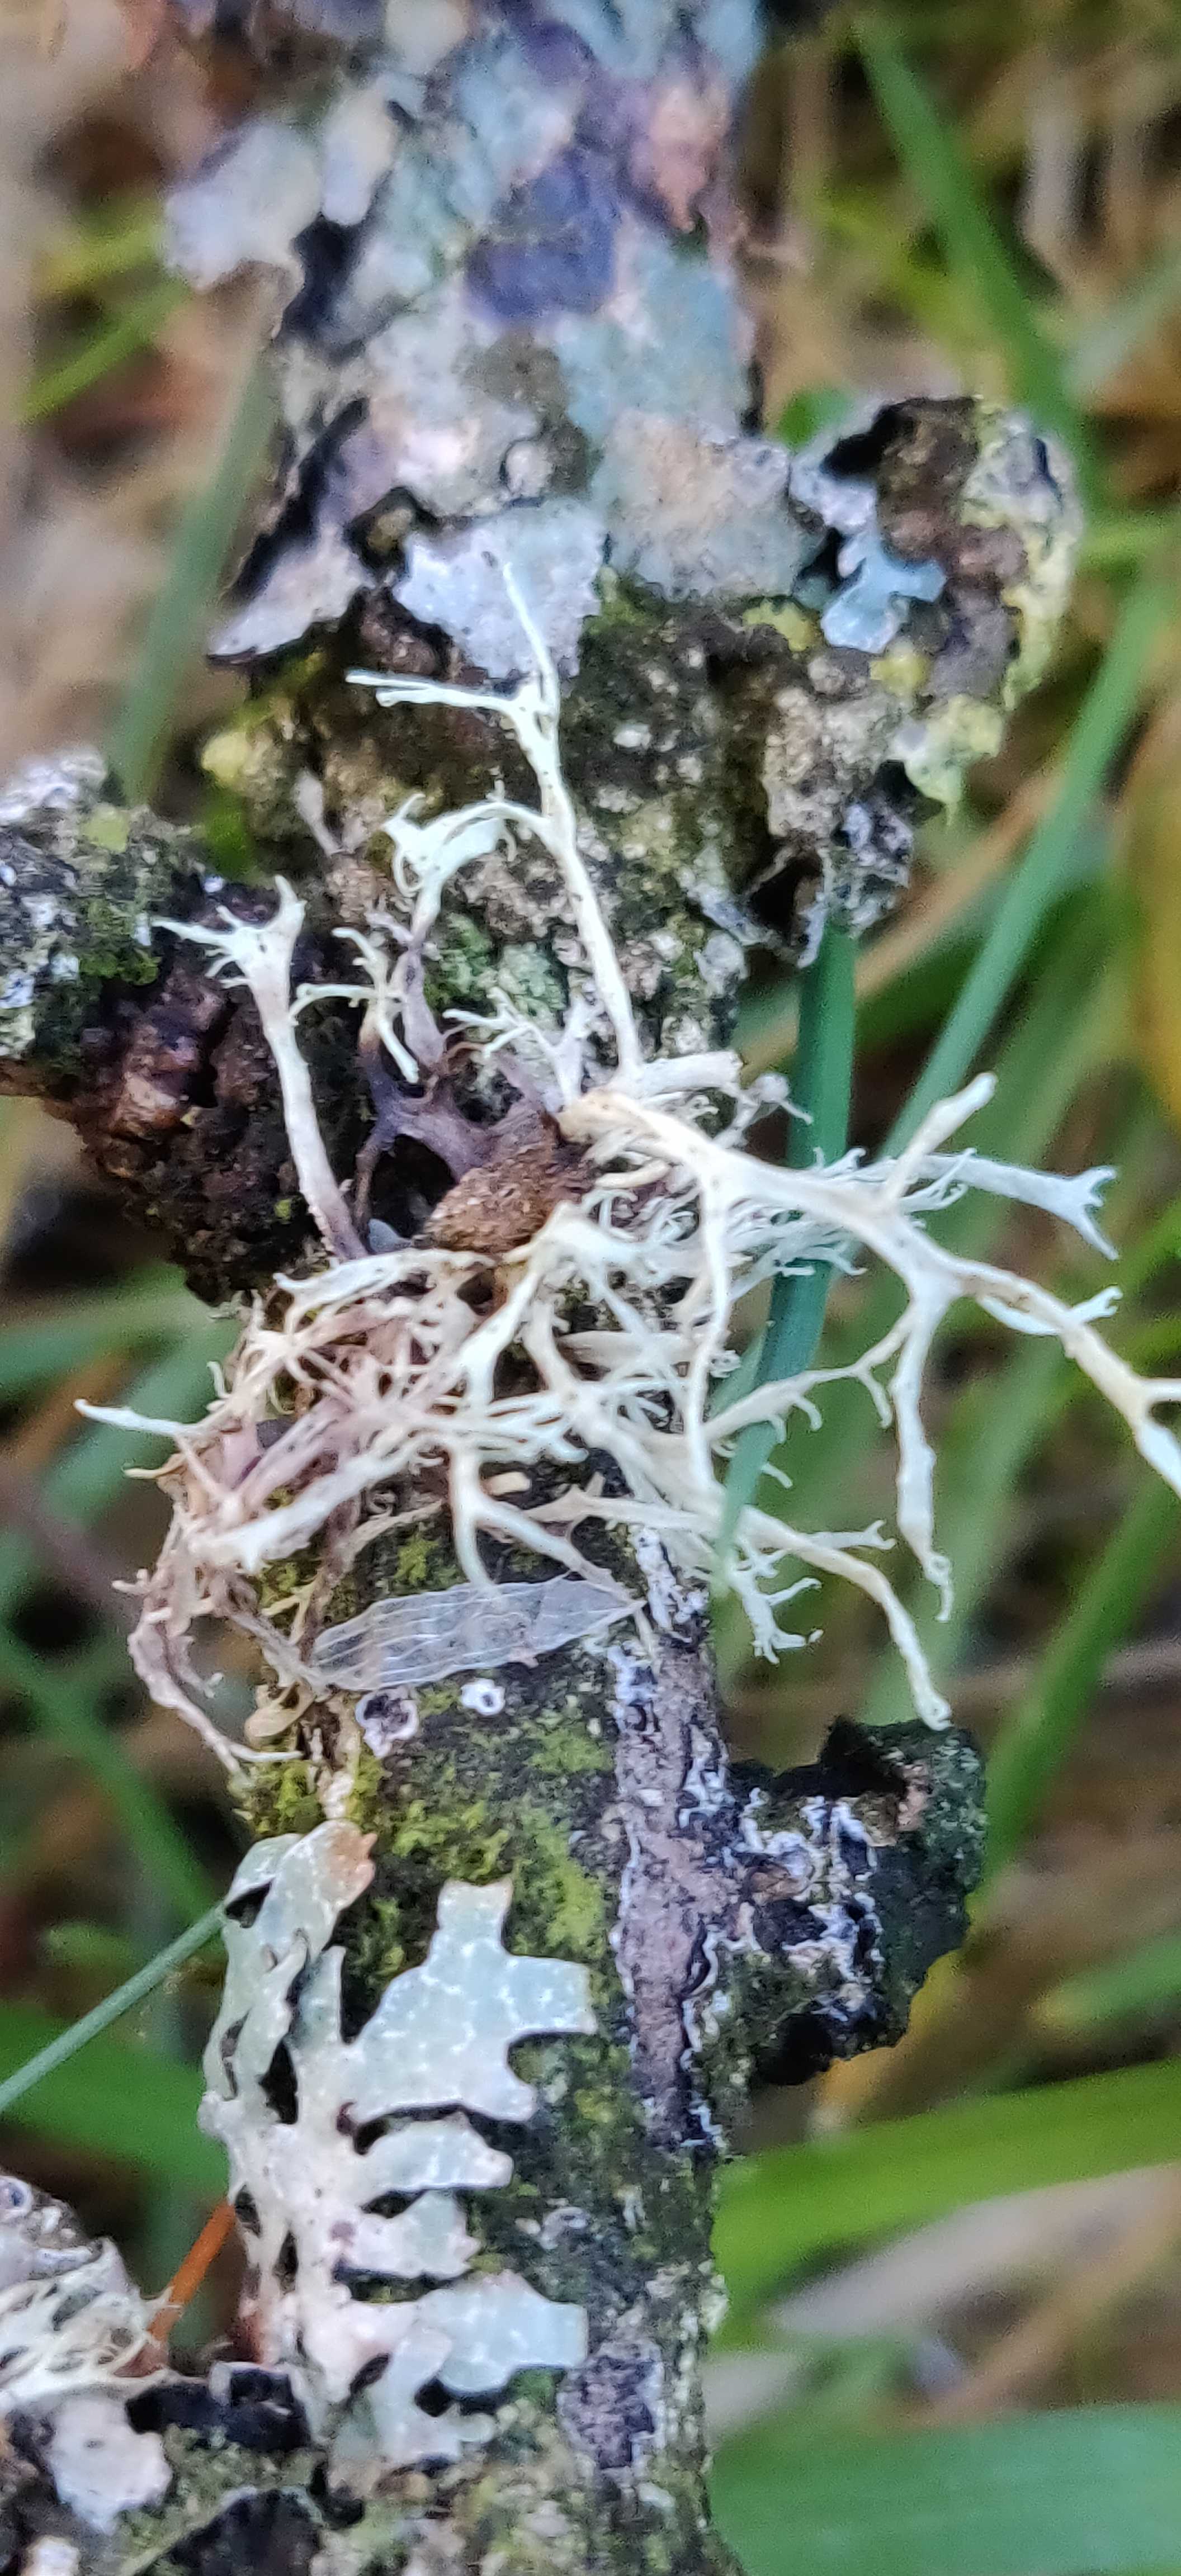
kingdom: Fungi
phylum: Ascomycota
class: Lecanoromycetes
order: Lecanorales
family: Ramalinaceae
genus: Ramalina
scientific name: Ramalina farinacea
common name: melet grenlav
